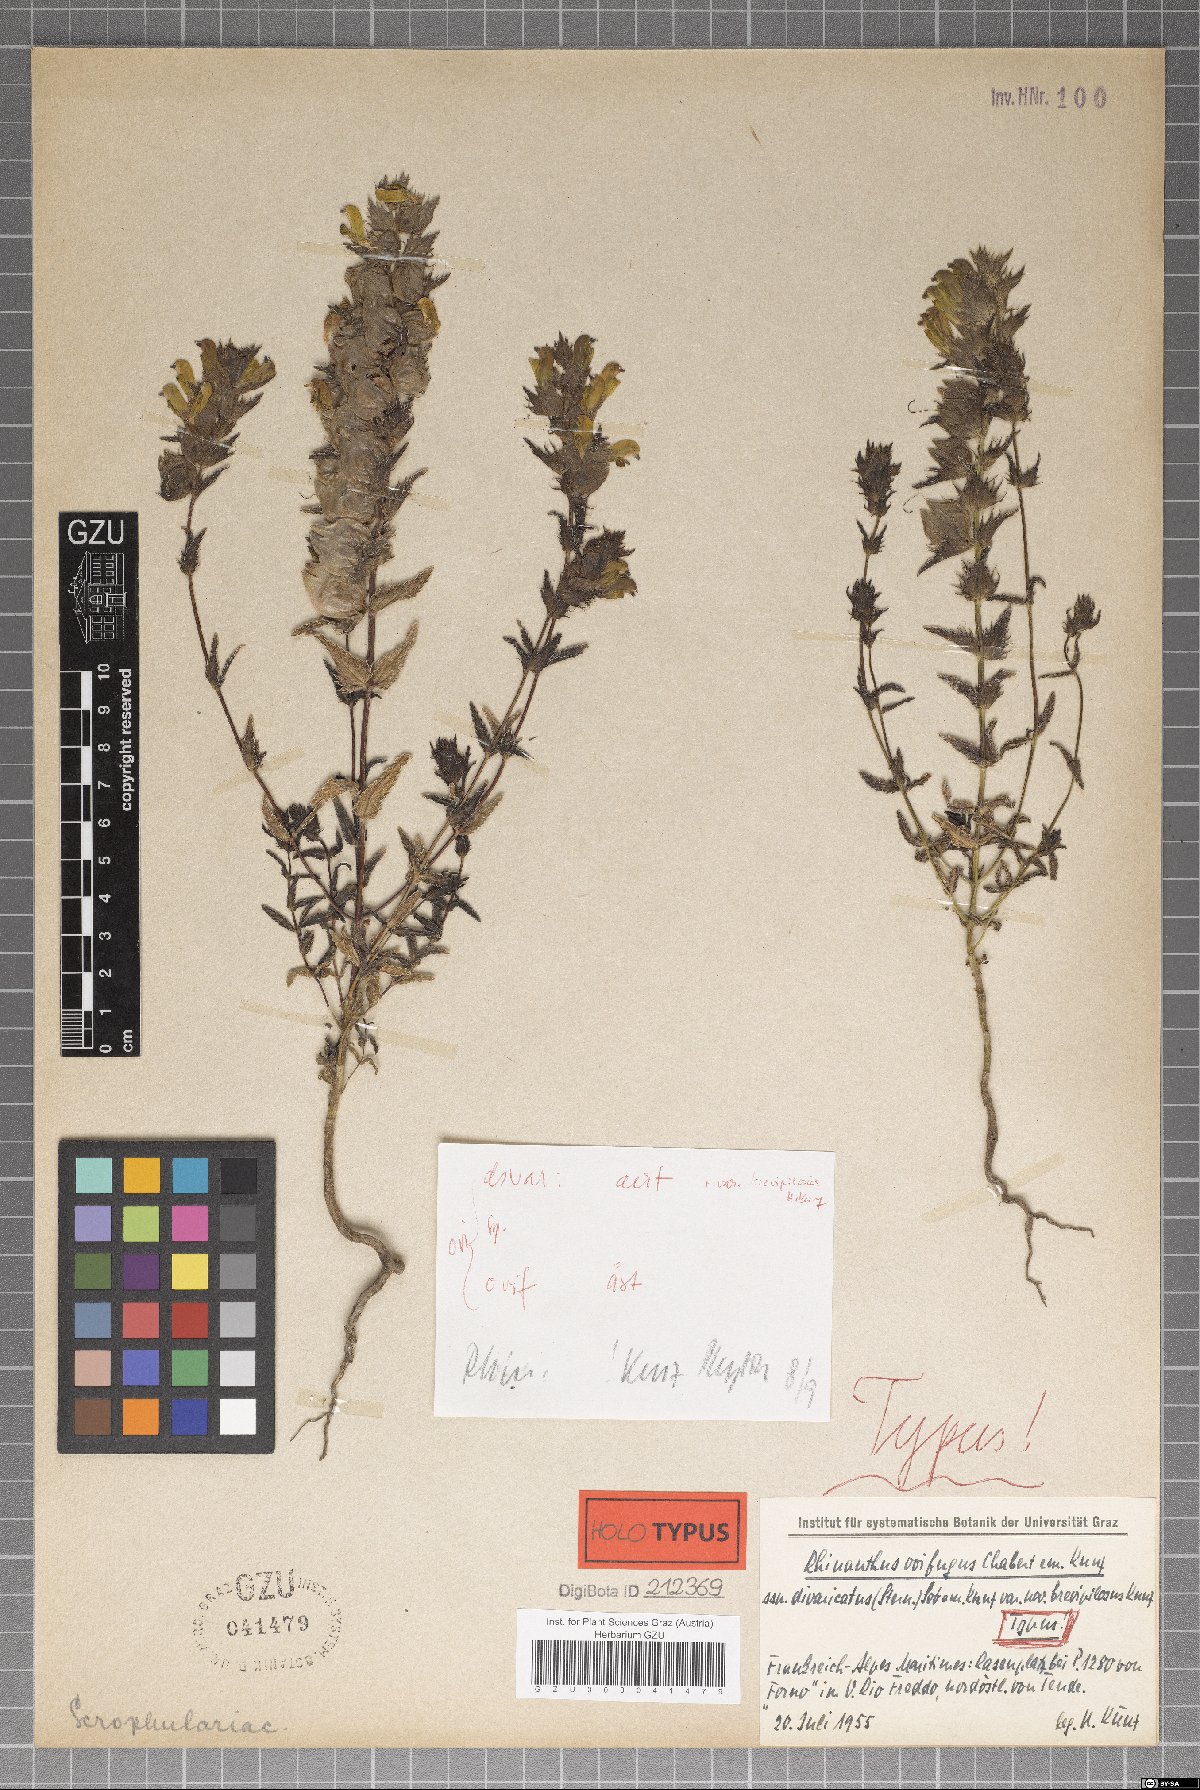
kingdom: Plantae
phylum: Tracheophyta
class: Magnoliopsida
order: Lamiales
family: Orobanchaceae
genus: Rhinanthus
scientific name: Rhinanthus ovifugus
